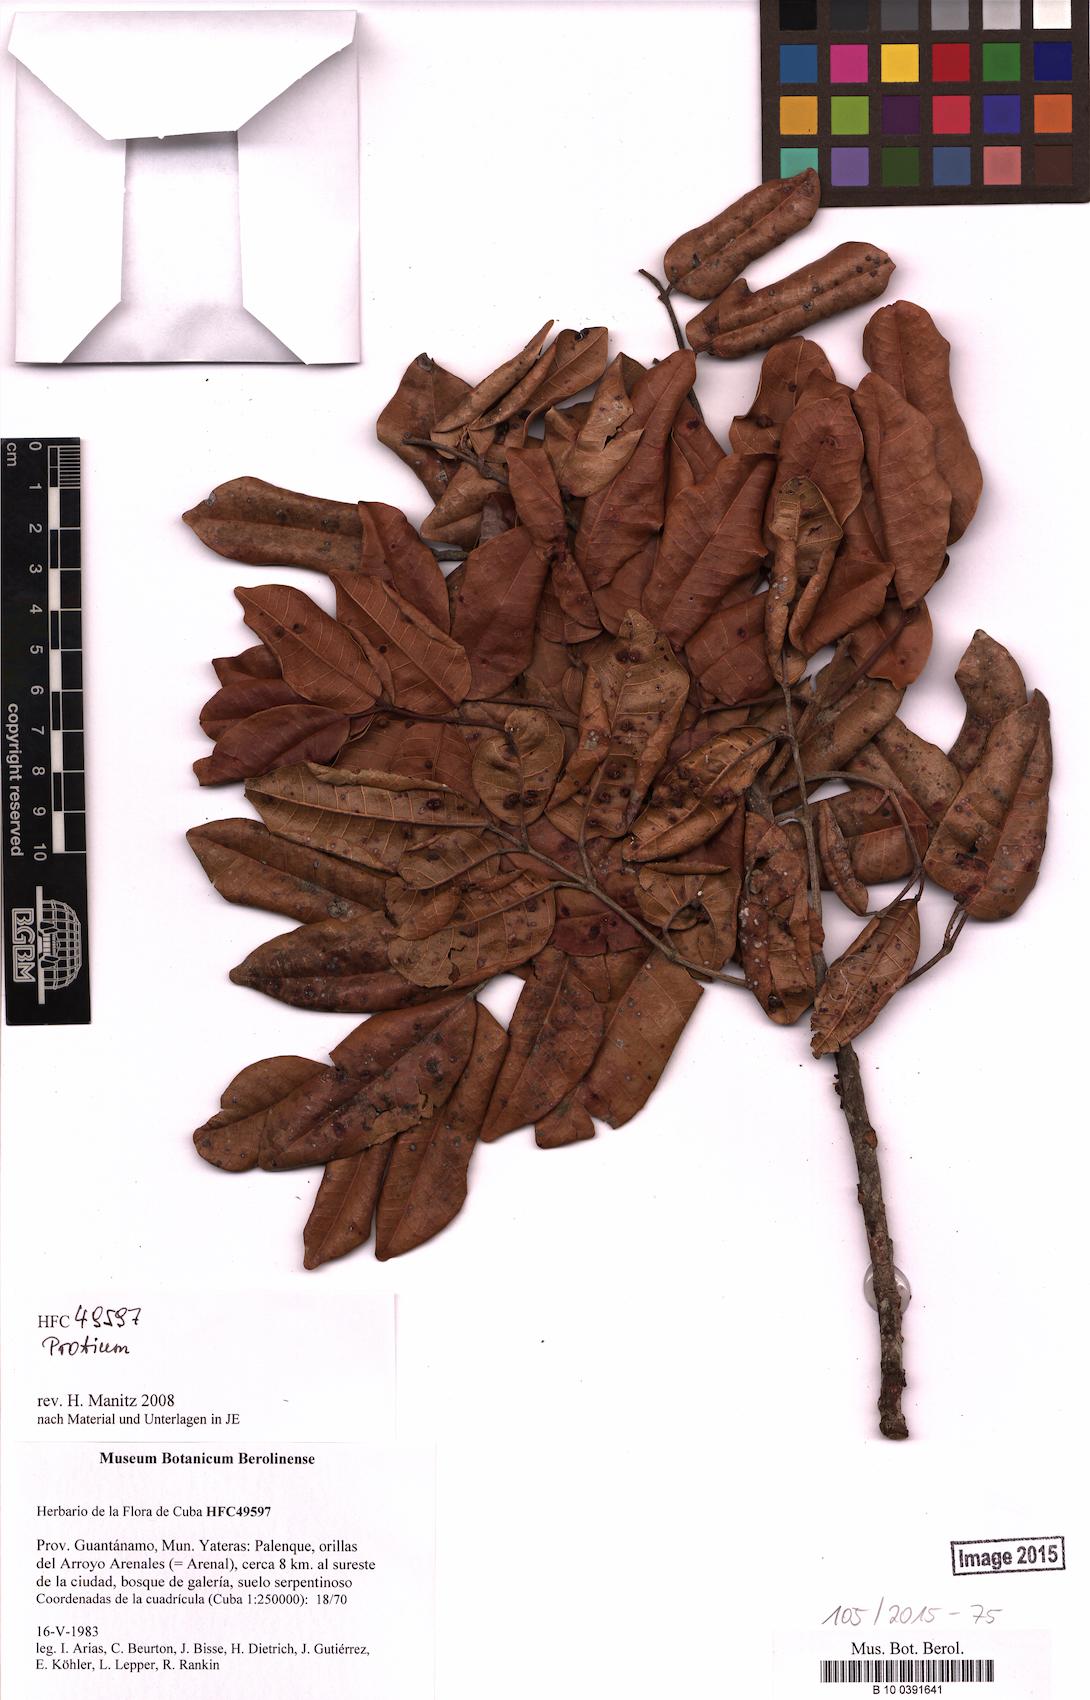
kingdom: Plantae
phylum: Tracheophyta
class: Magnoliopsida
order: Sapindales
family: Burseraceae
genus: Protium
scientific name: Protium
